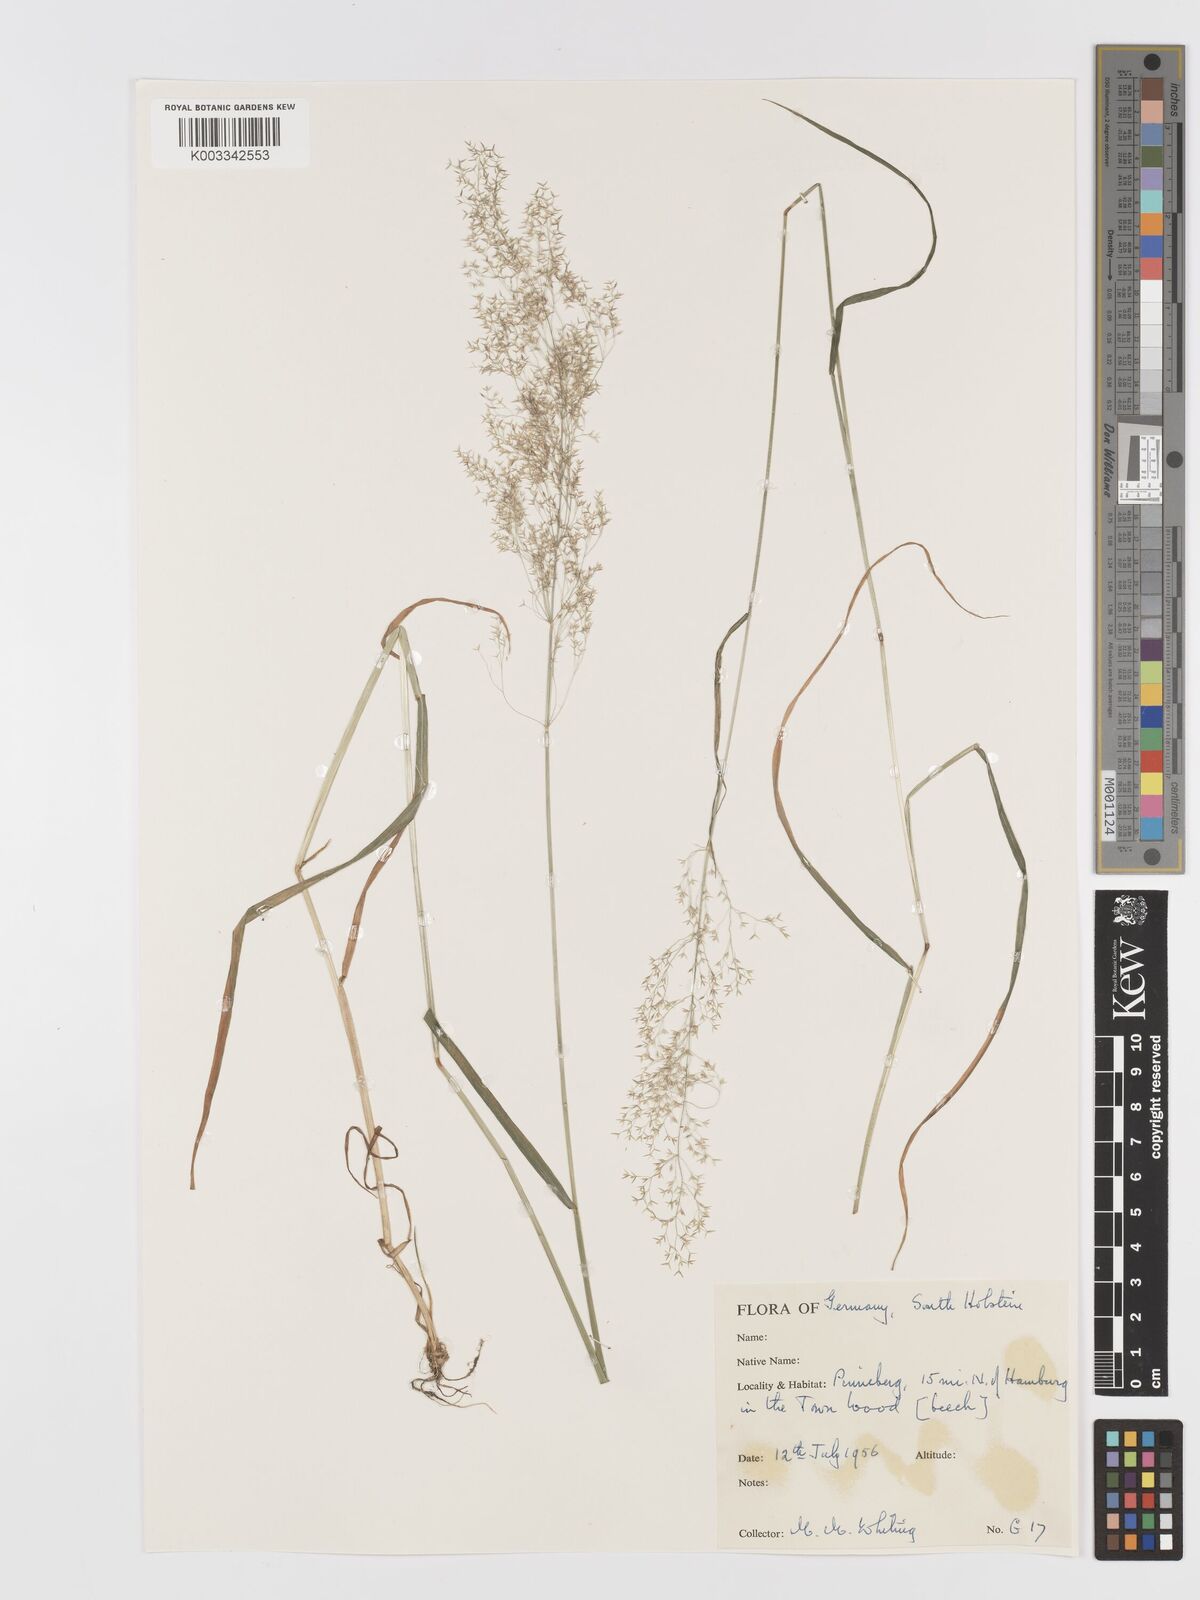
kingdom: Plantae
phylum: Tracheophyta
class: Liliopsida
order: Poales
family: Poaceae
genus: Agrostis
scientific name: Agrostis
